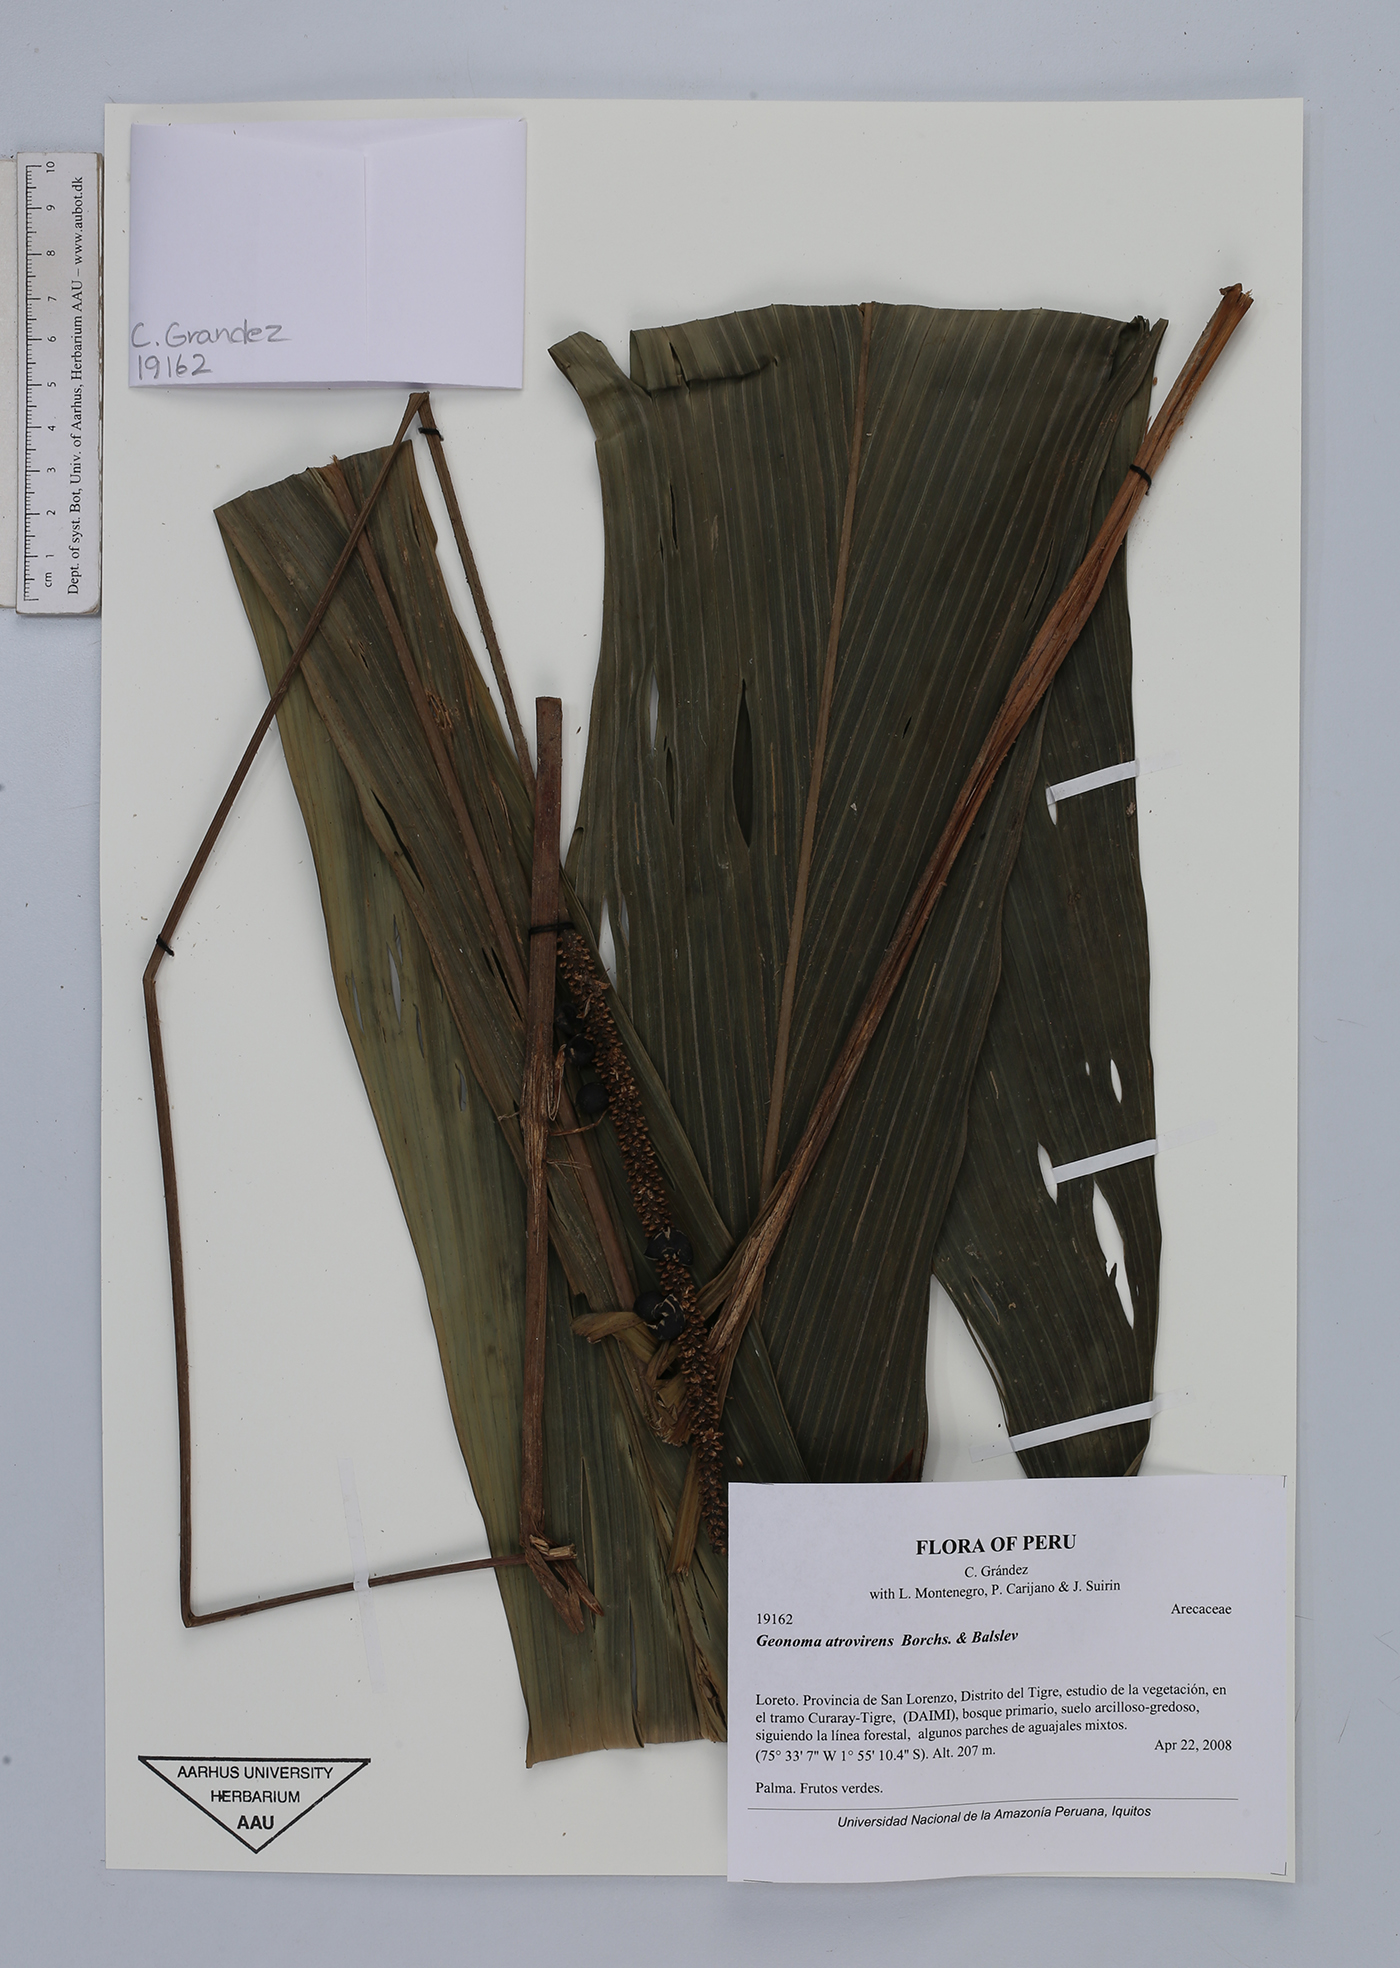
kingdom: Plantae
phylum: Tracheophyta
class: Liliopsida
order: Arecales
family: Arecaceae
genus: Geonoma
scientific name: Geonoma macrostachys
